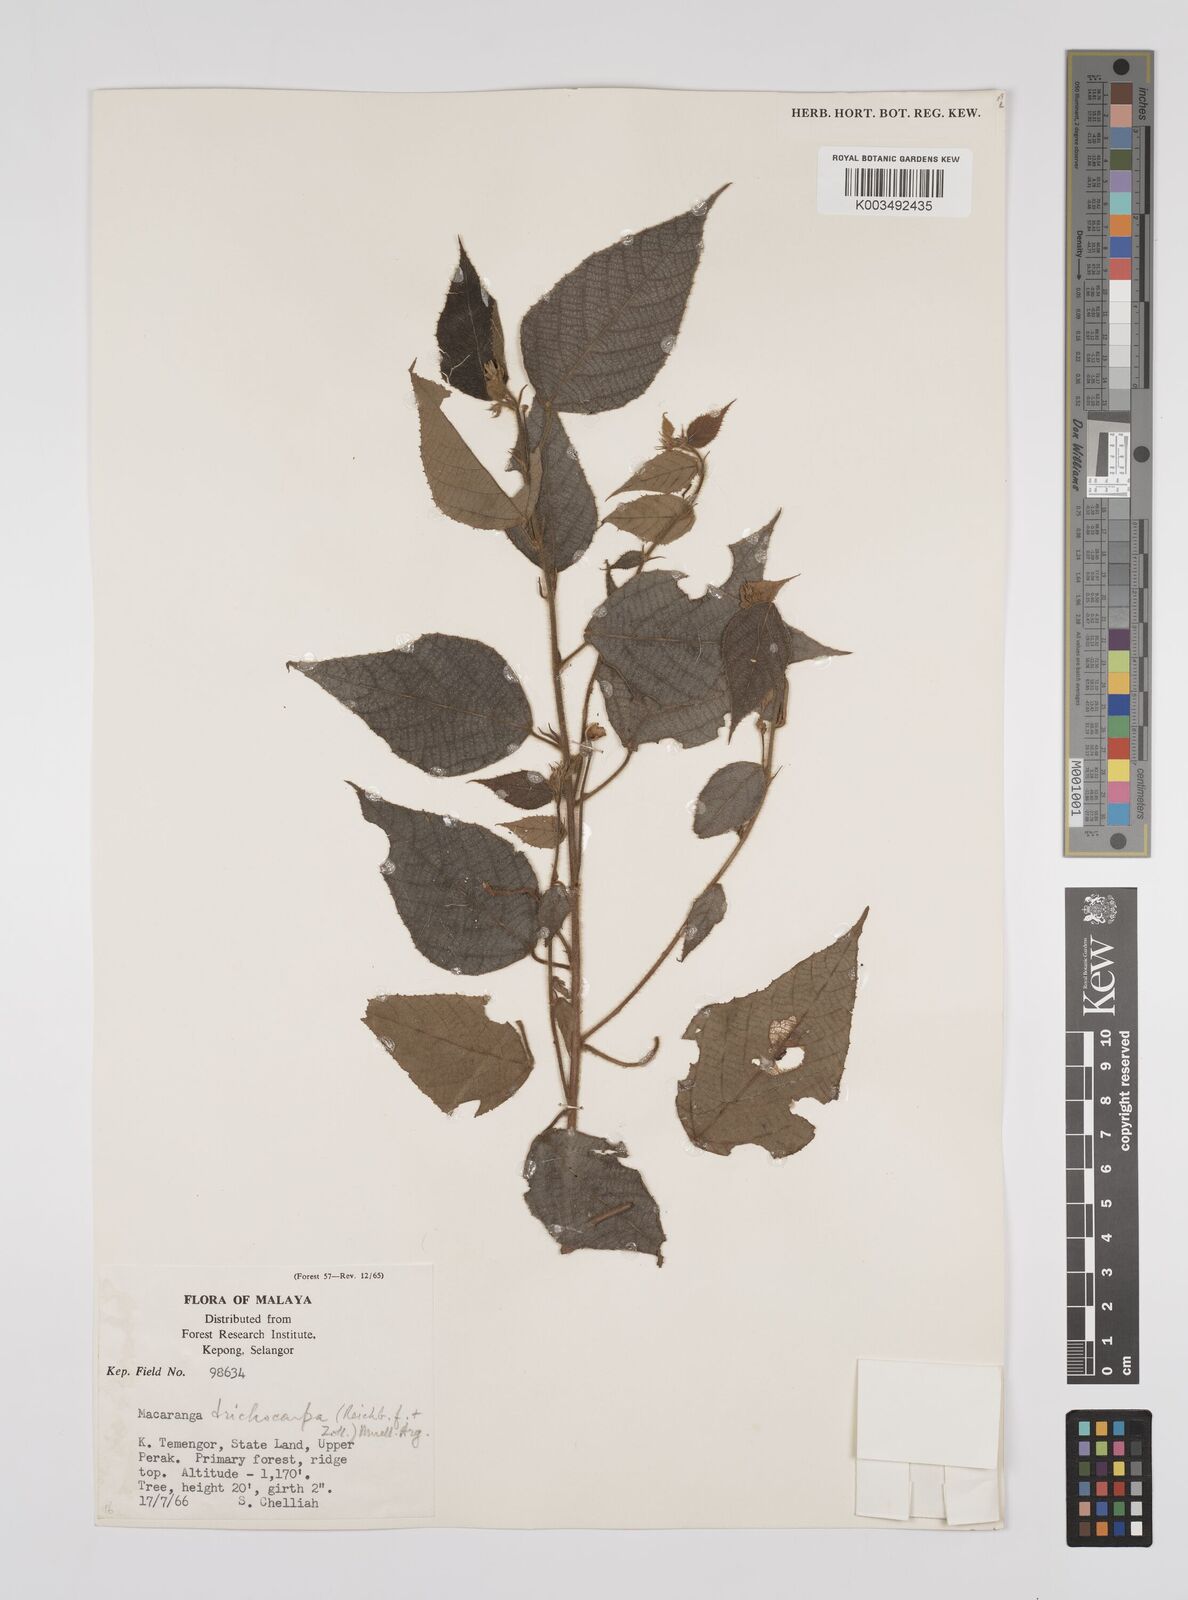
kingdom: Plantae
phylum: Tracheophyta
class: Magnoliopsida
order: Malpighiales
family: Euphorbiaceae
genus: Macaranga
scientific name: Macaranga trichocarpa
